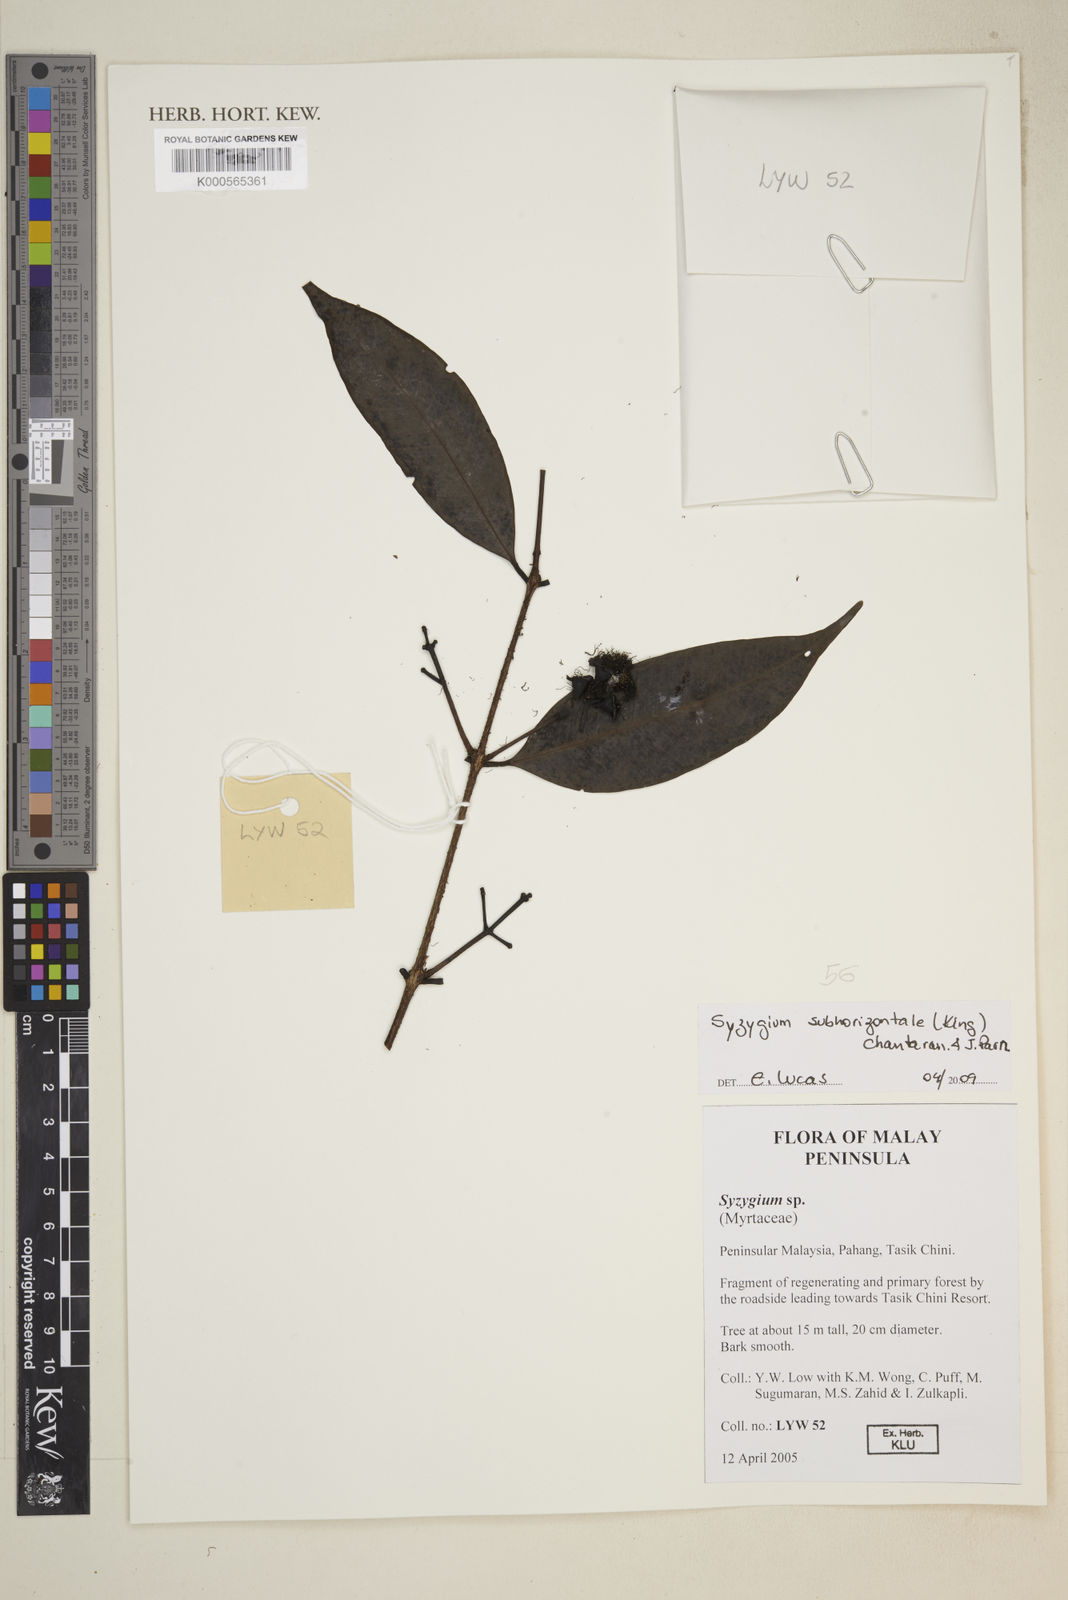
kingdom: Plantae
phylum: Tracheophyta
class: Magnoliopsida
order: Myrtales
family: Myrtaceae
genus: Syzygium
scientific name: Syzygium subhorizontale
